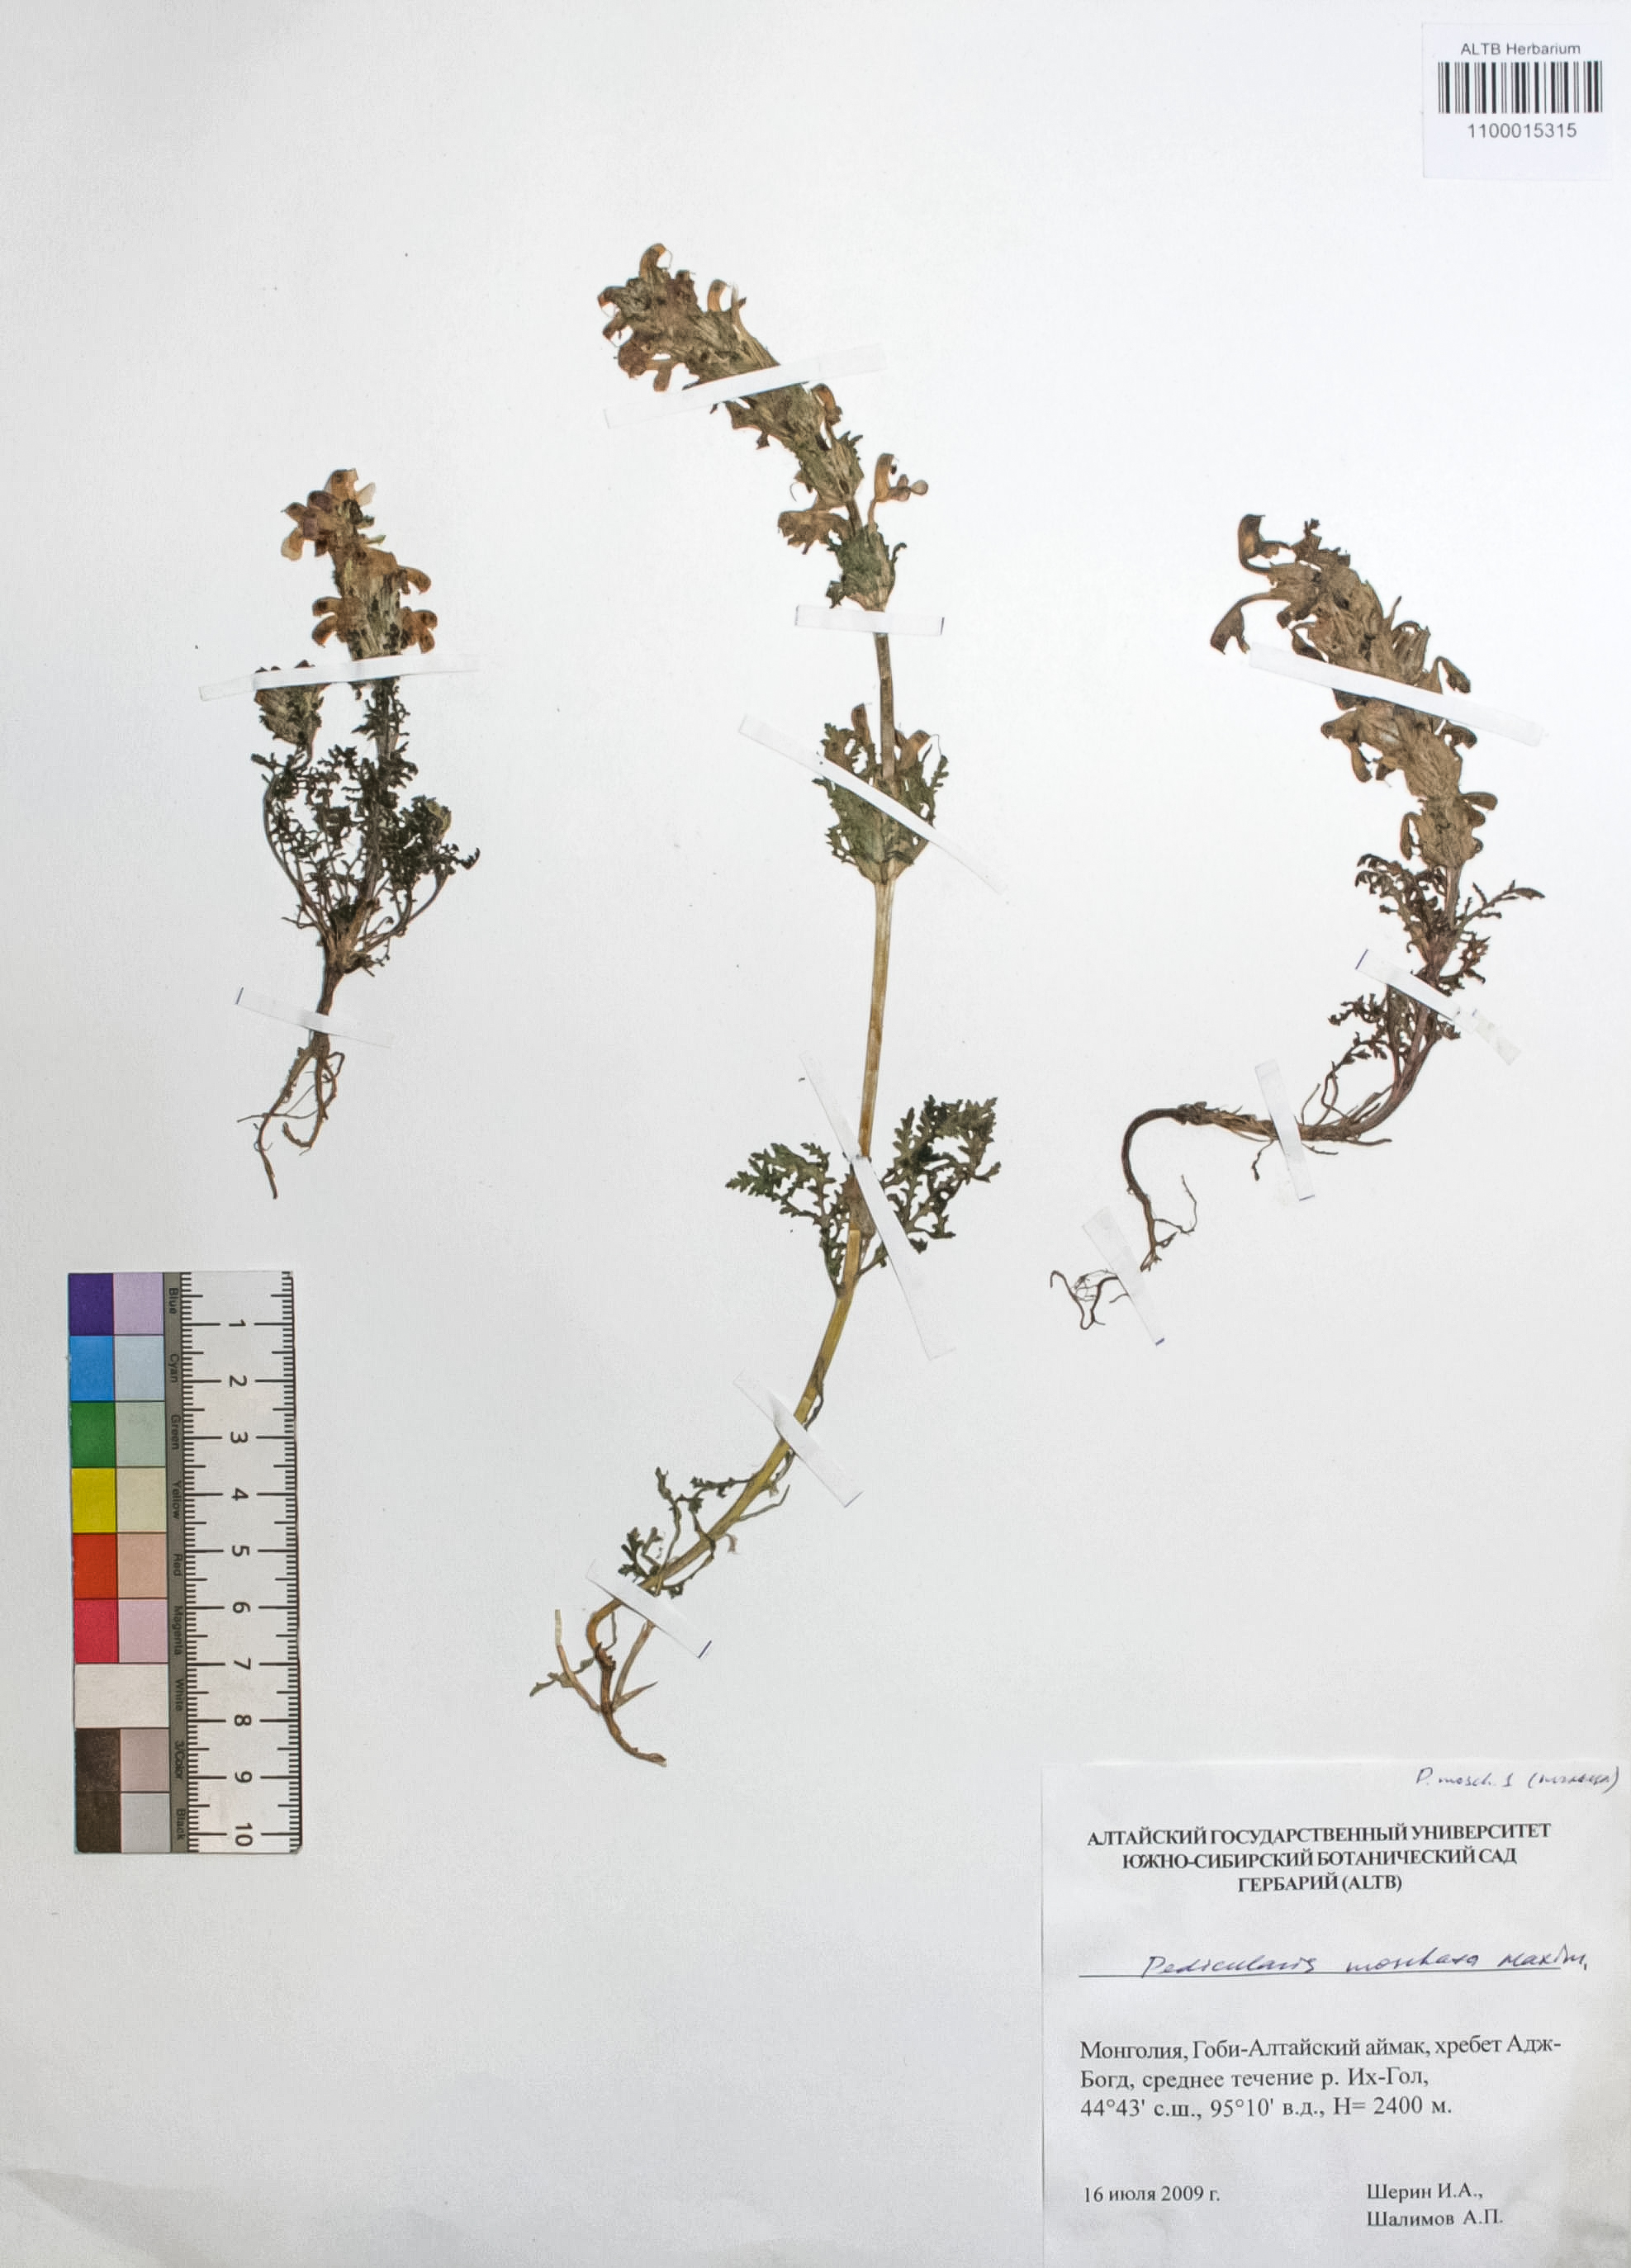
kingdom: Plantae
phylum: Tracheophyta
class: Magnoliopsida
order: Lamiales
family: Orobanchaceae
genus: Pedicularis
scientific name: Pedicularis moschata
